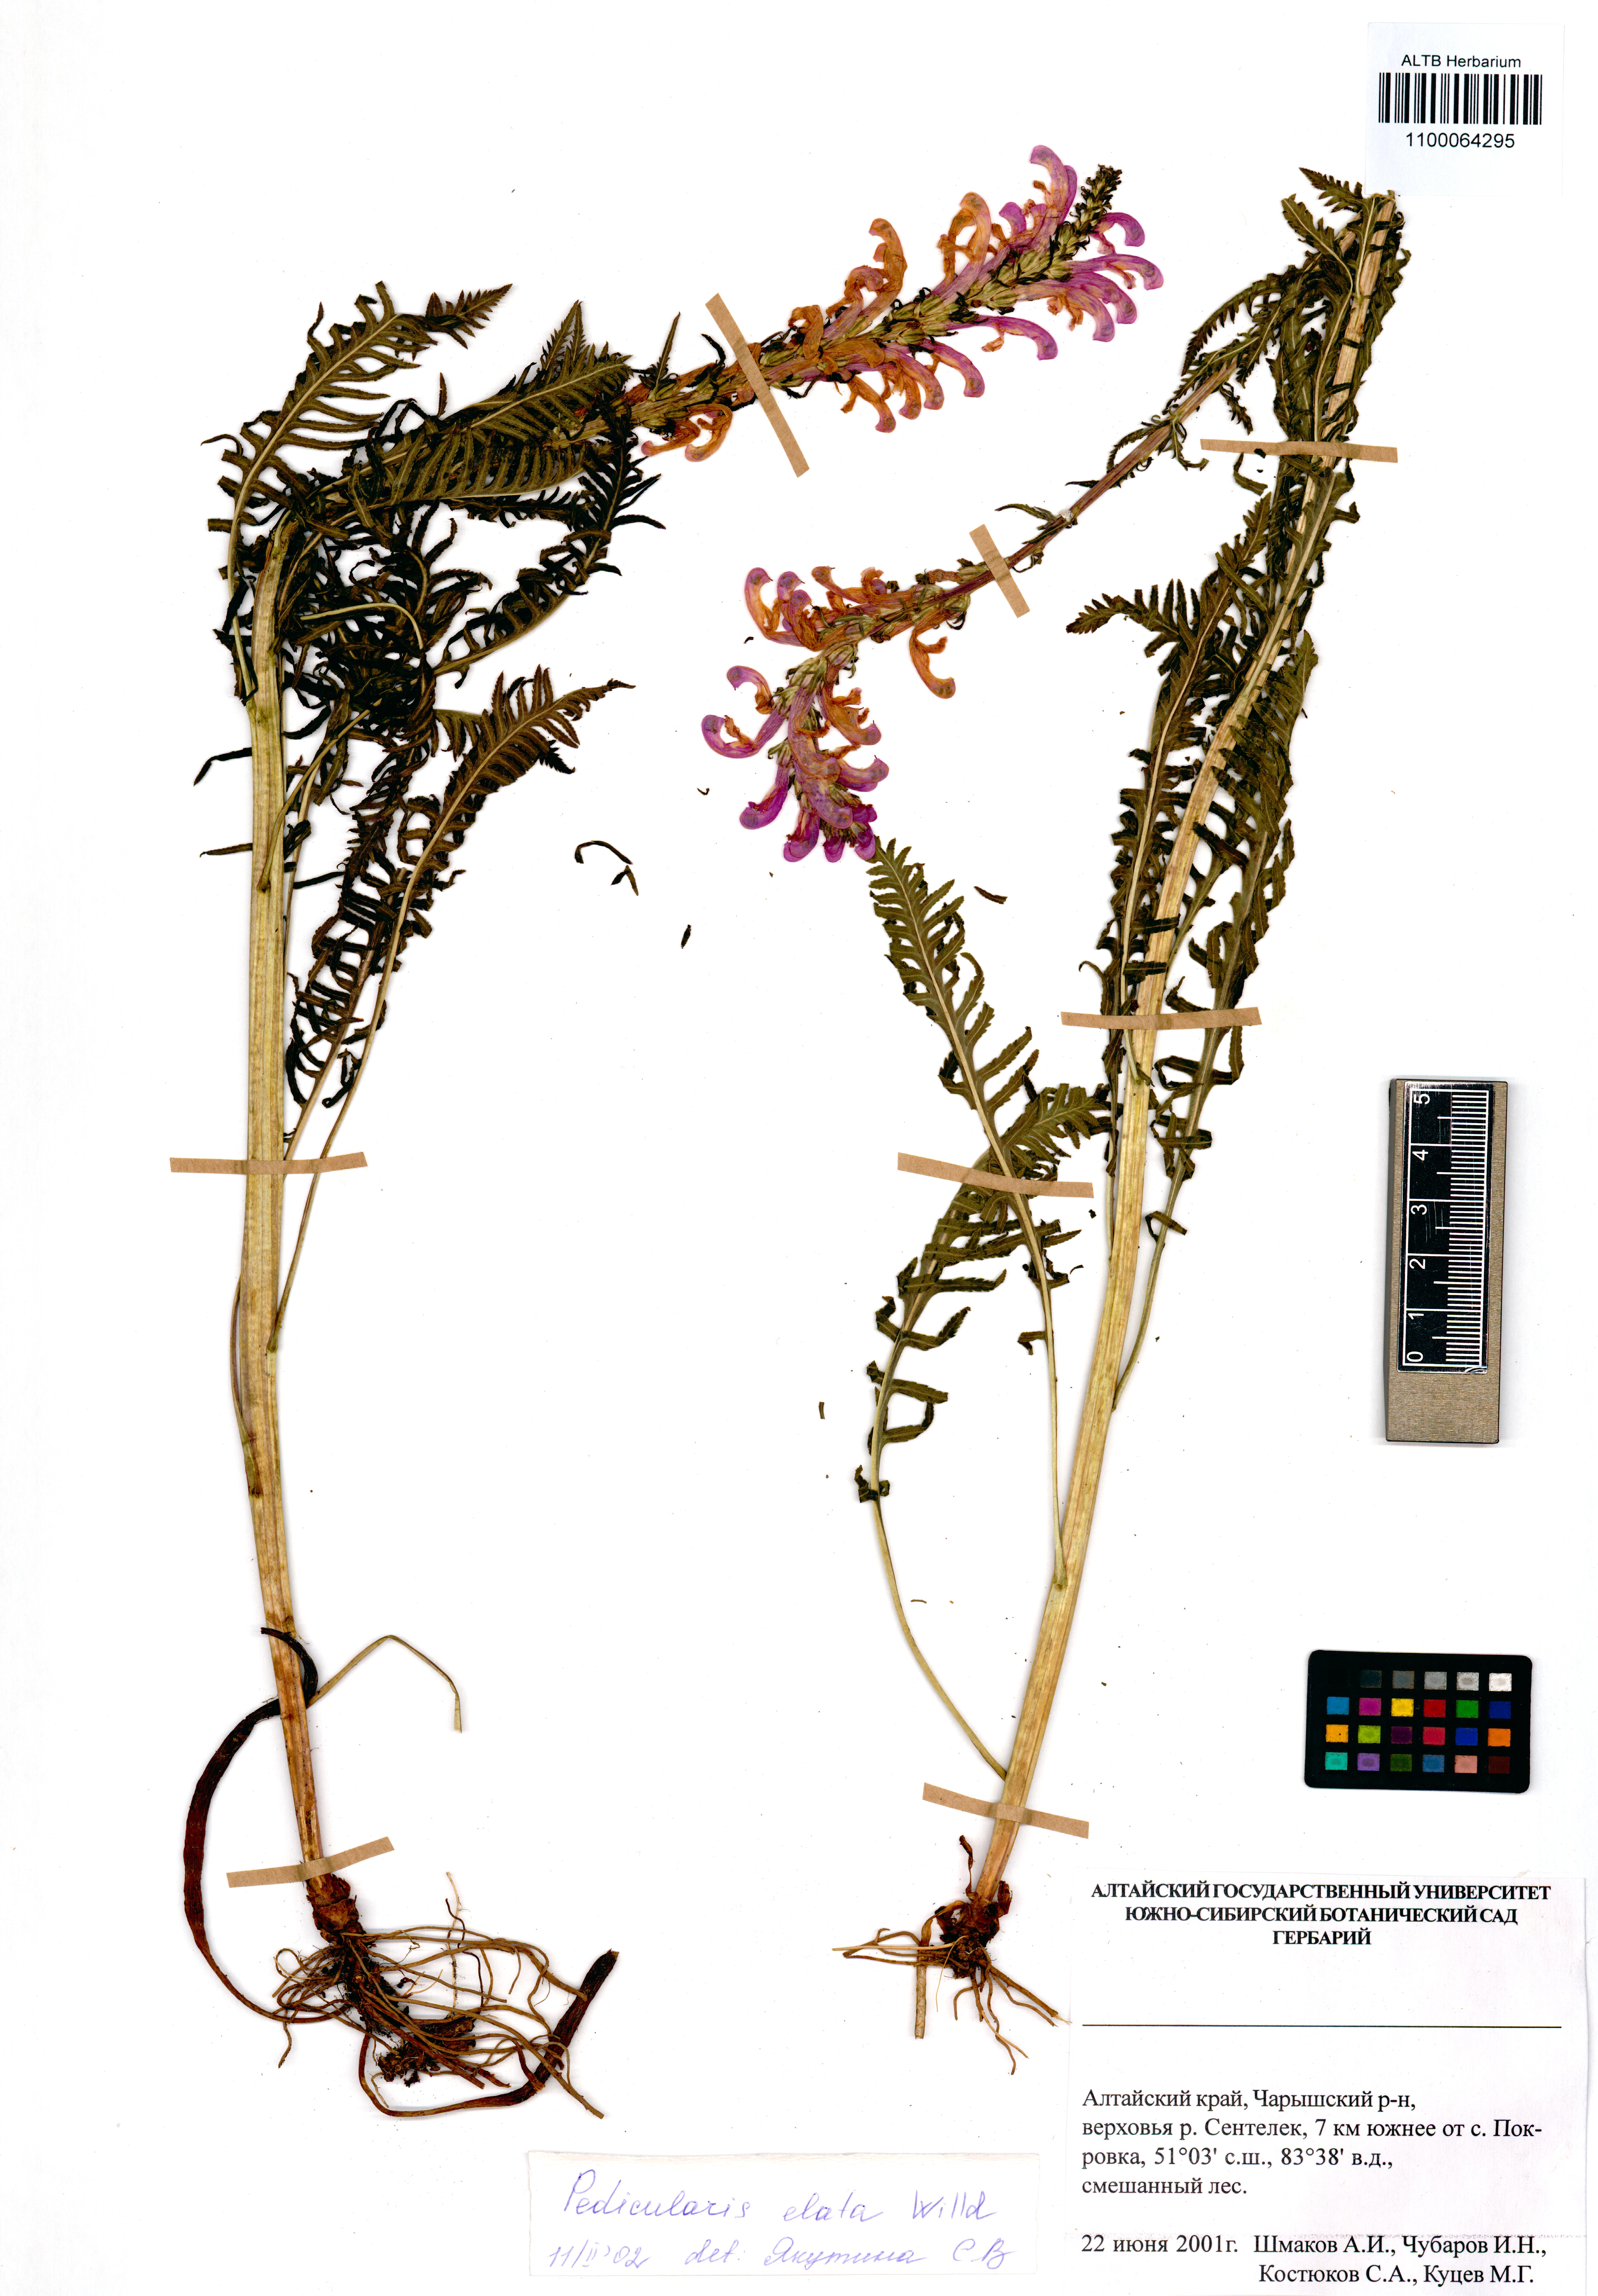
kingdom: Plantae
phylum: Tracheophyta
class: Magnoliopsida
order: Lamiales
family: Orobanchaceae
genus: Pedicularis
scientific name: Pedicularis elata
